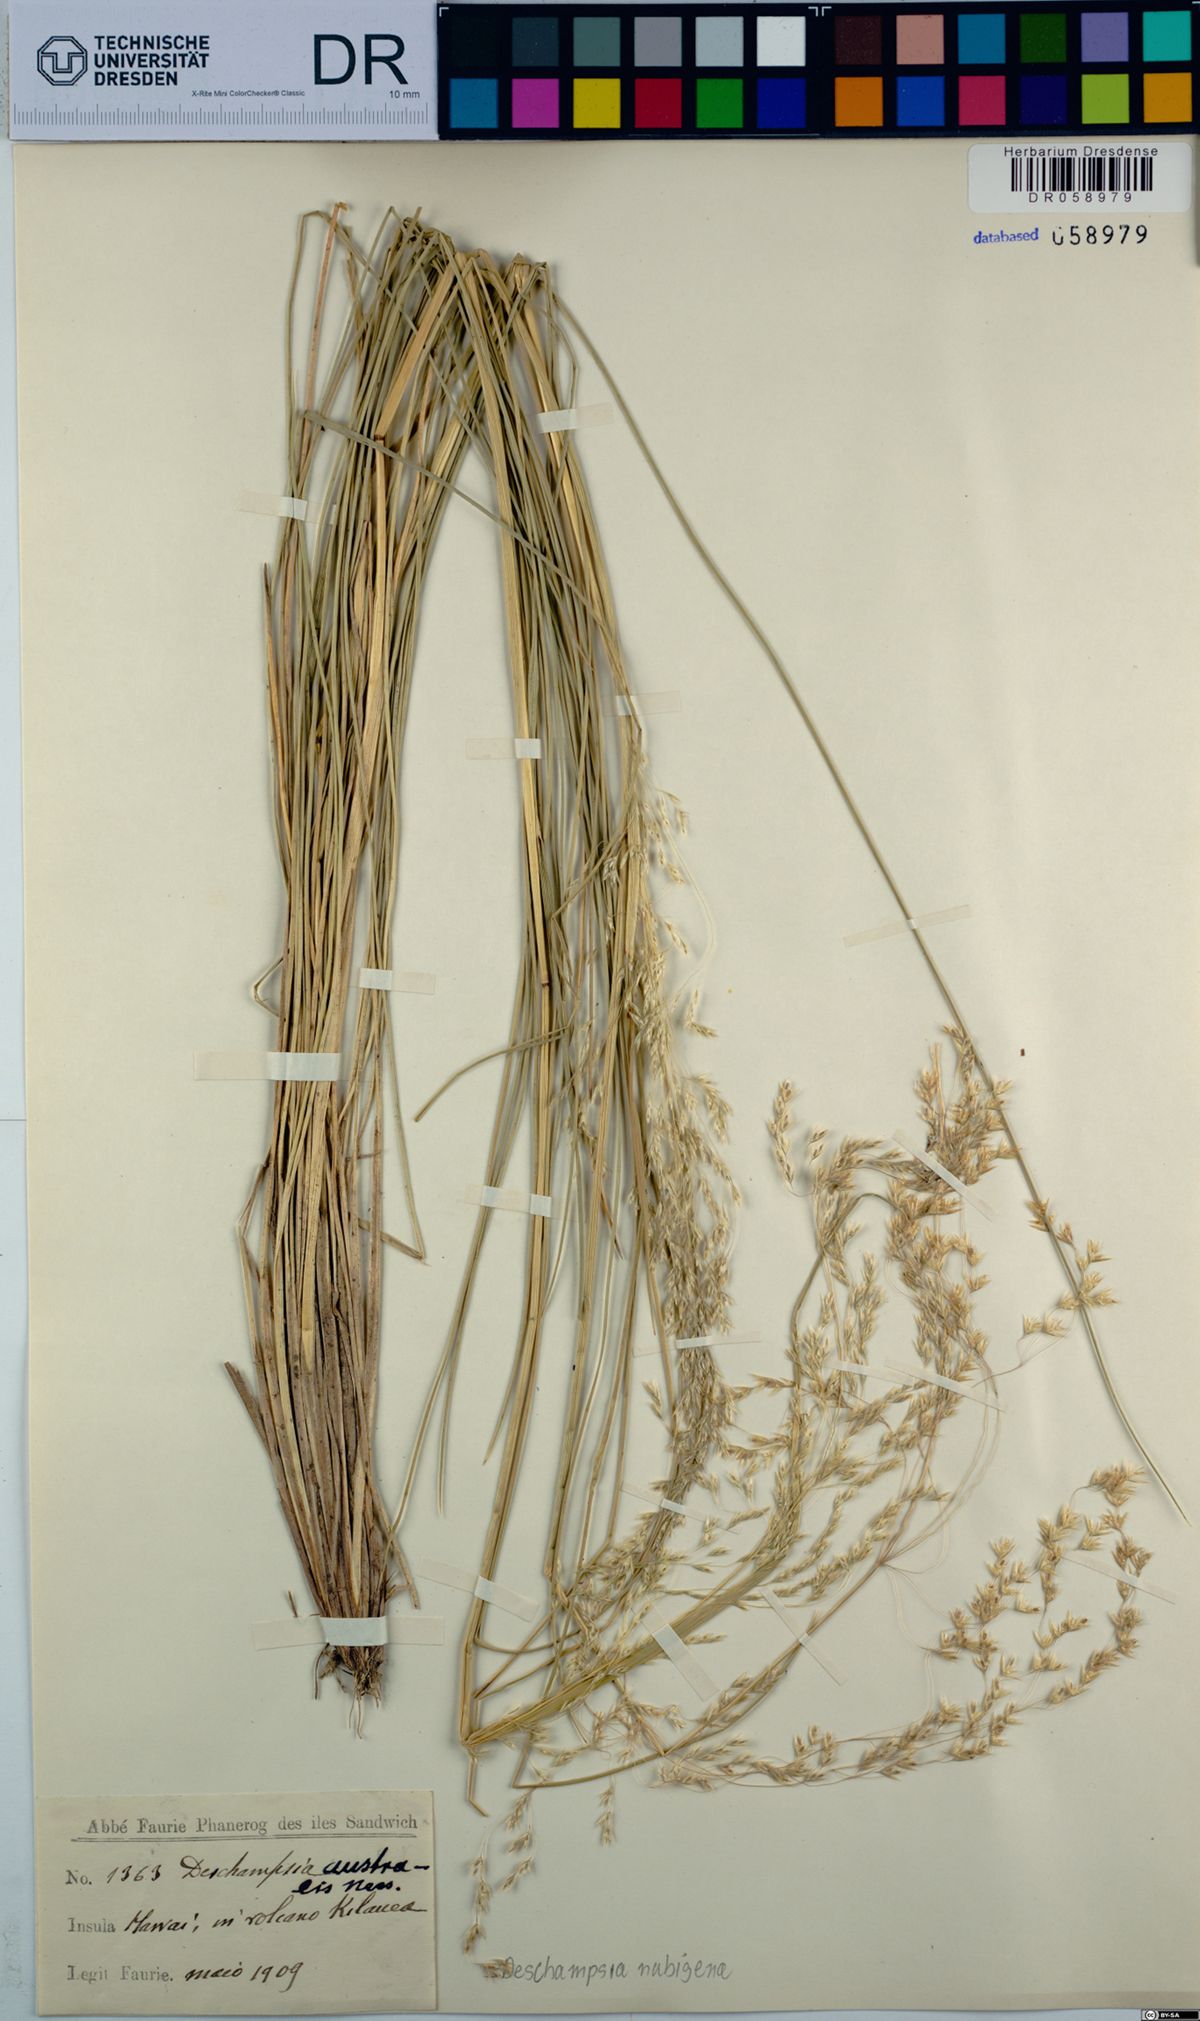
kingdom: Plantae
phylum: Tracheophyta
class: Liliopsida
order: Poales
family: Poaceae
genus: Deschampsia
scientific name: Deschampsia nubigena
